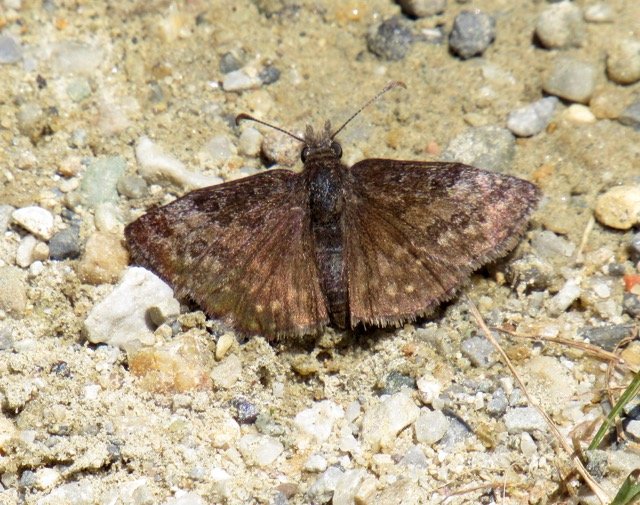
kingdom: Animalia
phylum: Arthropoda
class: Insecta
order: Lepidoptera
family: Hesperiidae
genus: Erynnis
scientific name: Erynnis
